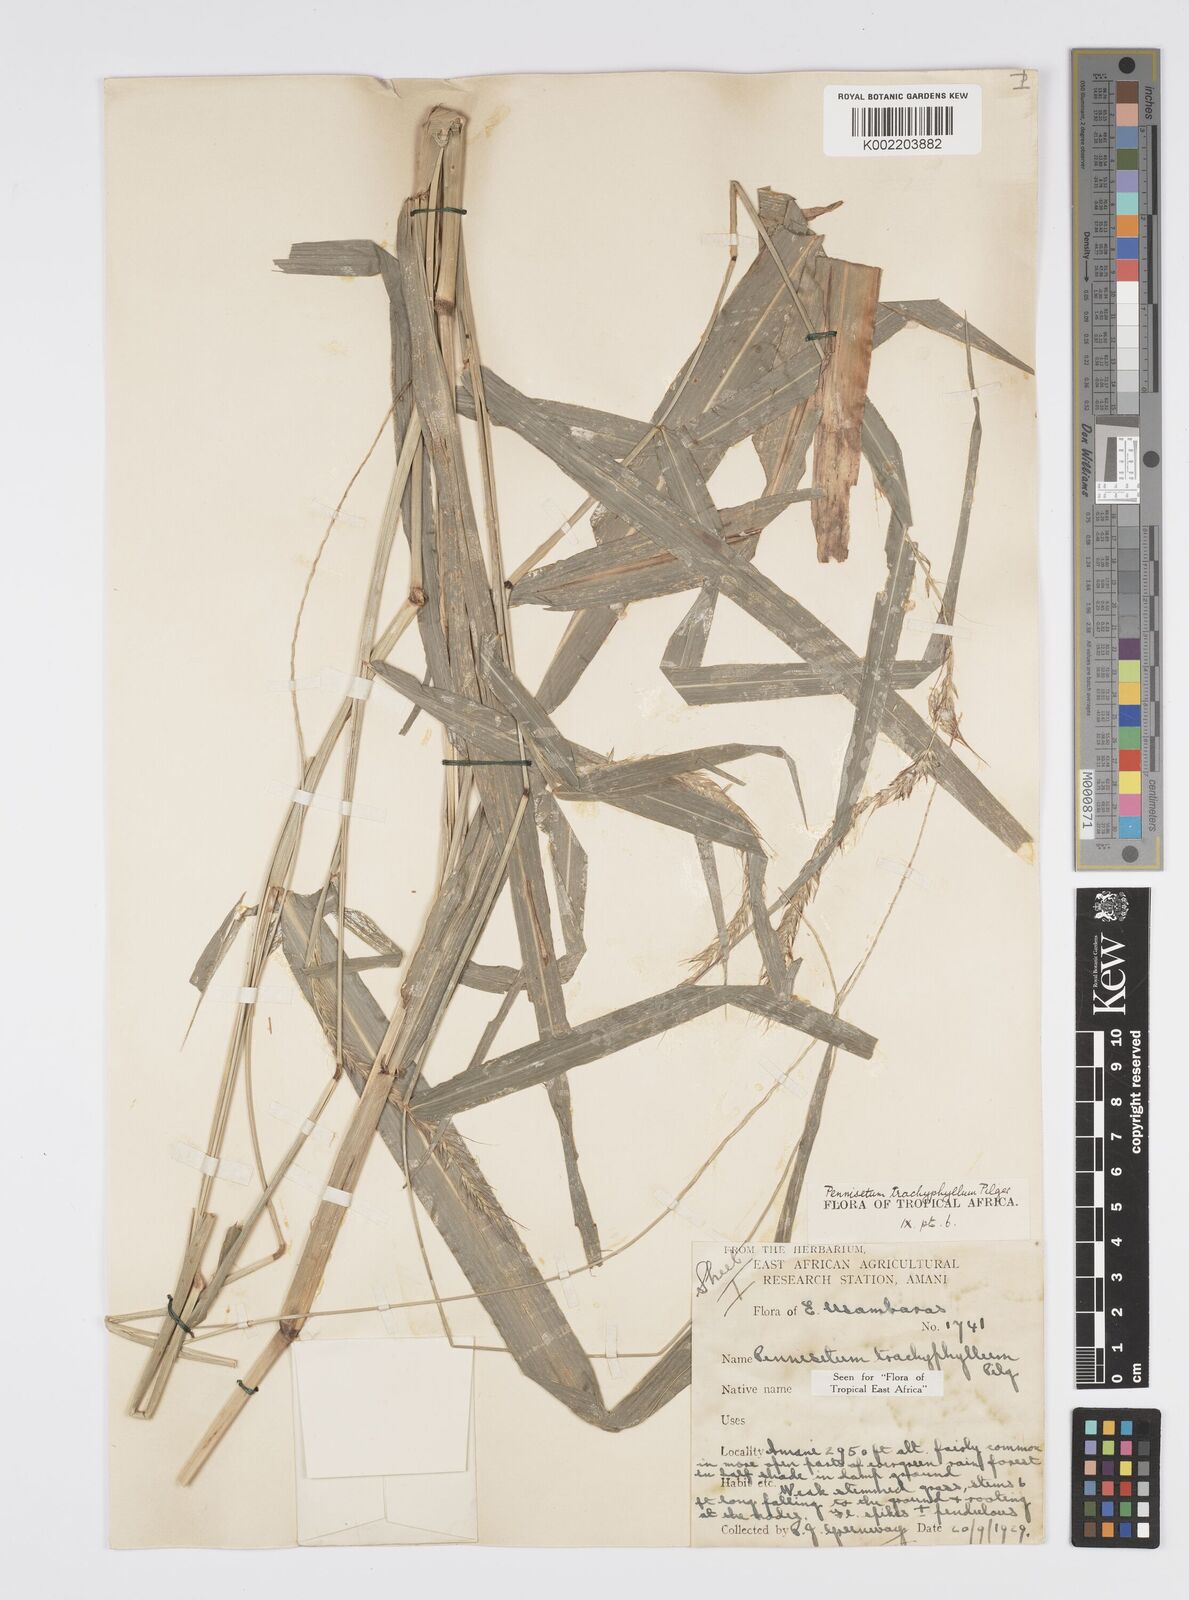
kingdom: Plantae
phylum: Tracheophyta
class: Liliopsida
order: Poales
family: Poaceae
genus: Cenchrus
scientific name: Cenchrus trachyphyllus
